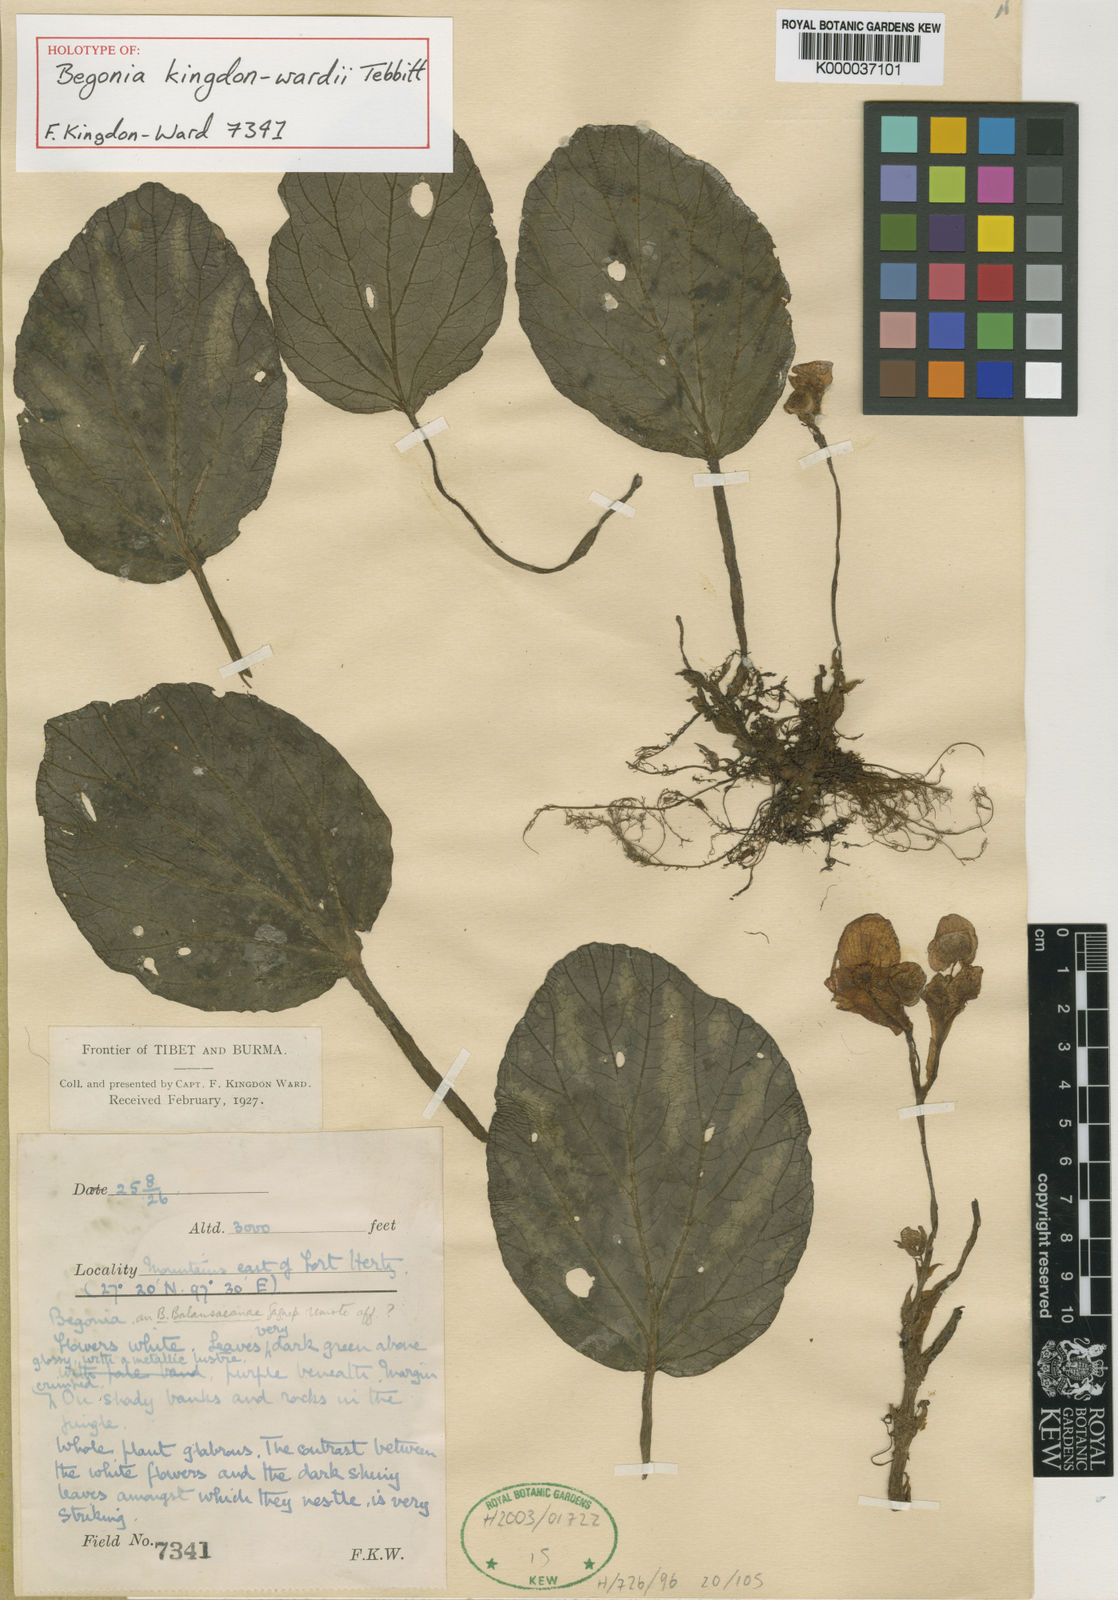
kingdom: Plantae
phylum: Tracheophyta
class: Magnoliopsida
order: Cucurbitales
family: Begoniaceae
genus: Begonia
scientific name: Begonia kingdon-wardii
